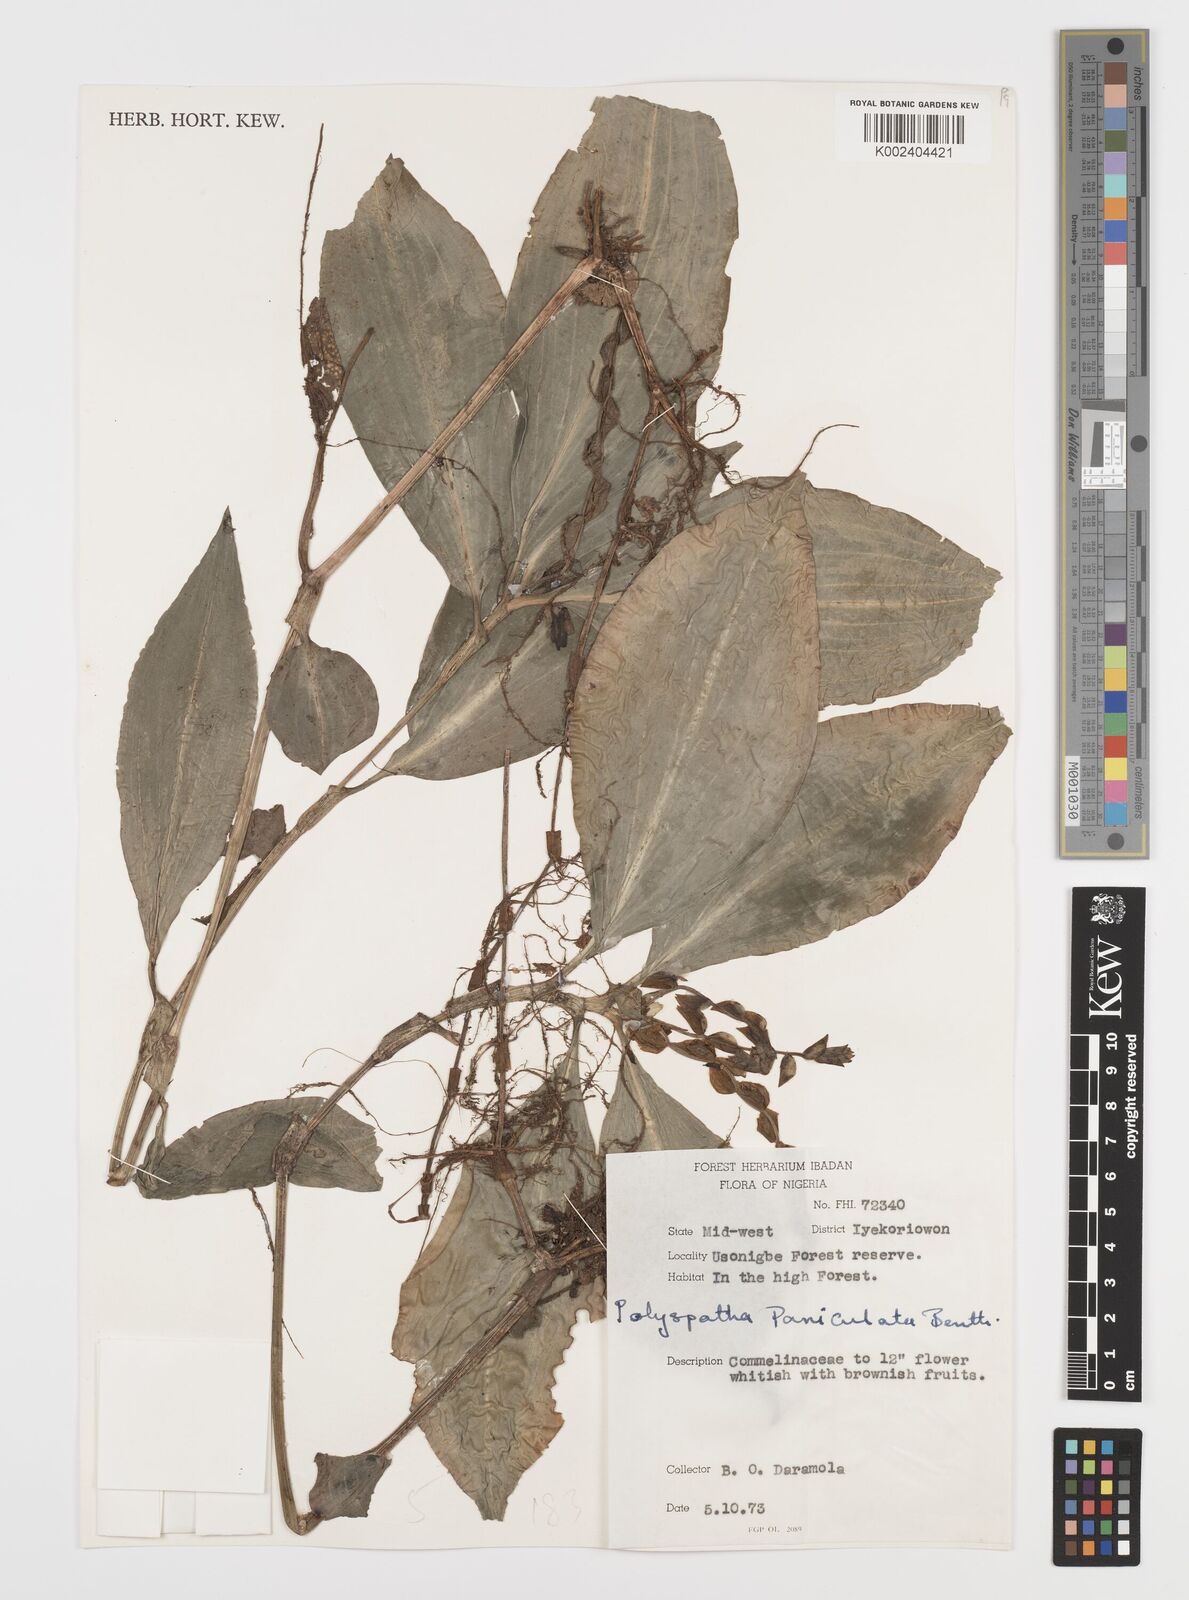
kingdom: Plantae
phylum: Tracheophyta
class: Liliopsida
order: Commelinales
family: Commelinaceae
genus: Polyspatha
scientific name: Polyspatha paniculata
